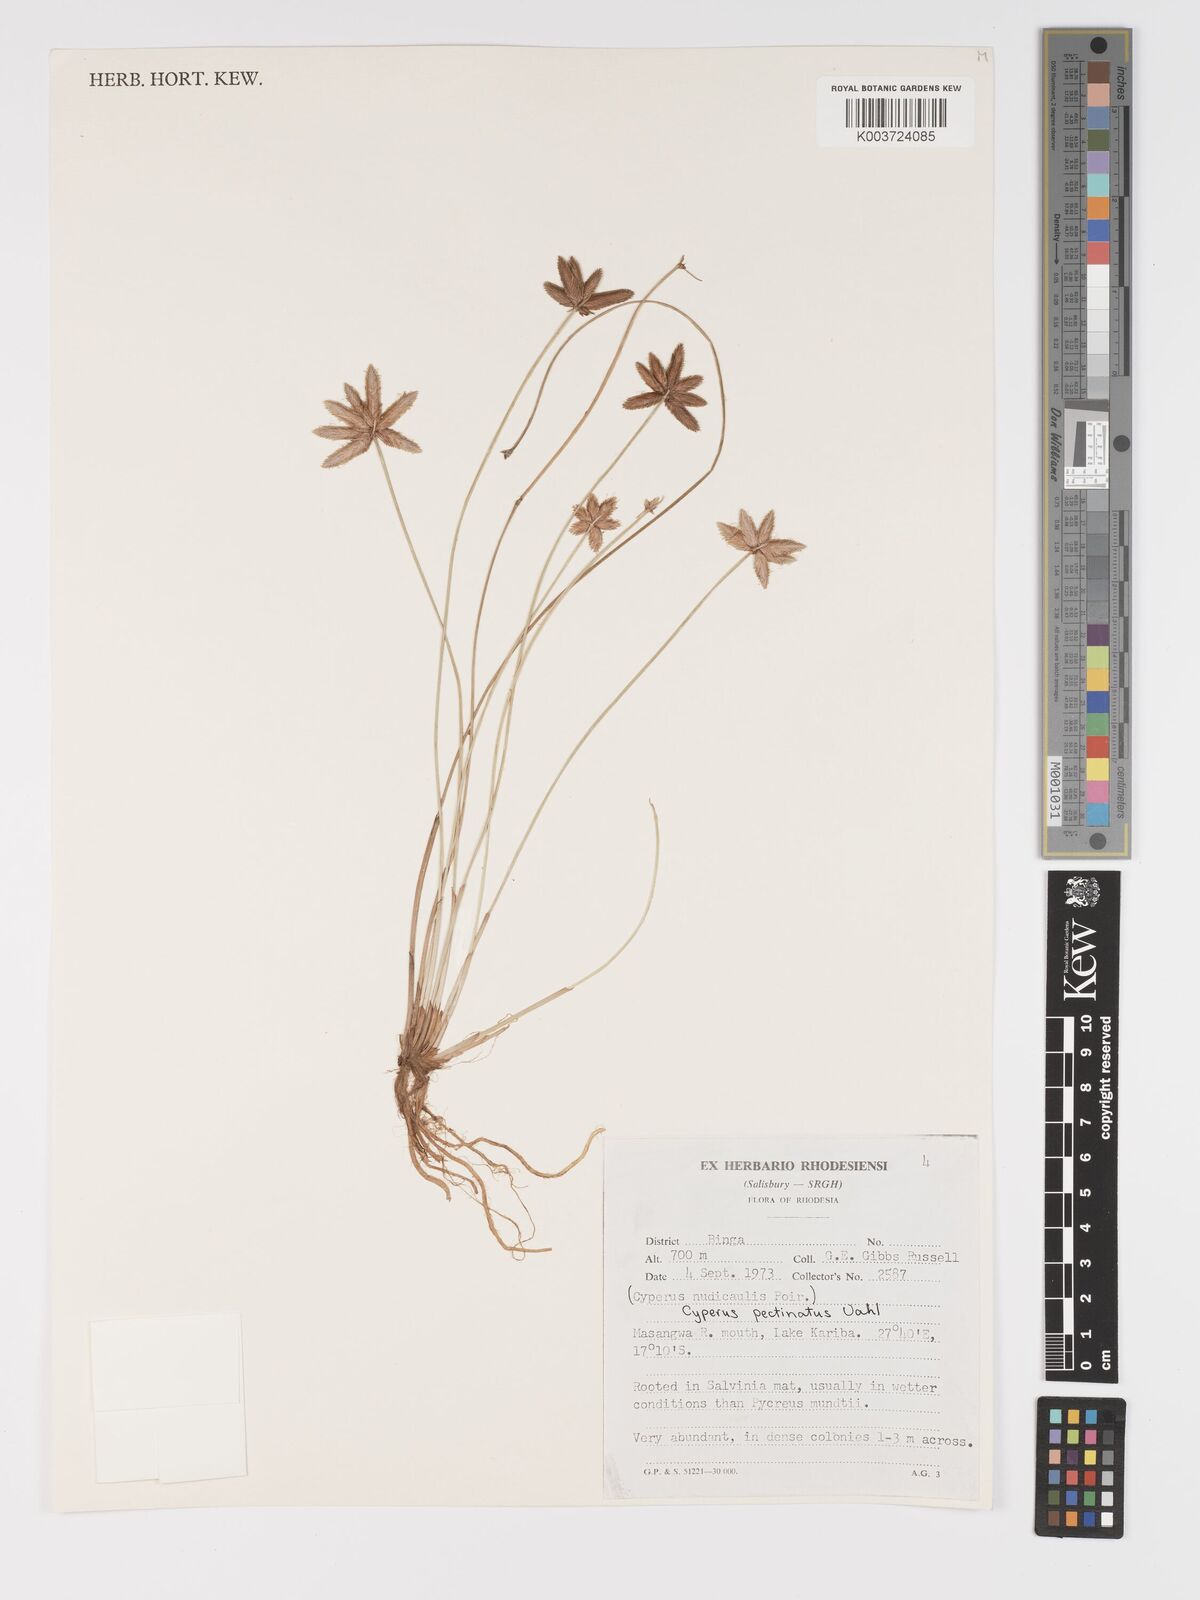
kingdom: Plantae
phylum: Tracheophyta
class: Liliopsida
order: Poales
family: Cyperaceae
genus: Cyperus
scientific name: Cyperus compressus
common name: Poorland flatsedge
